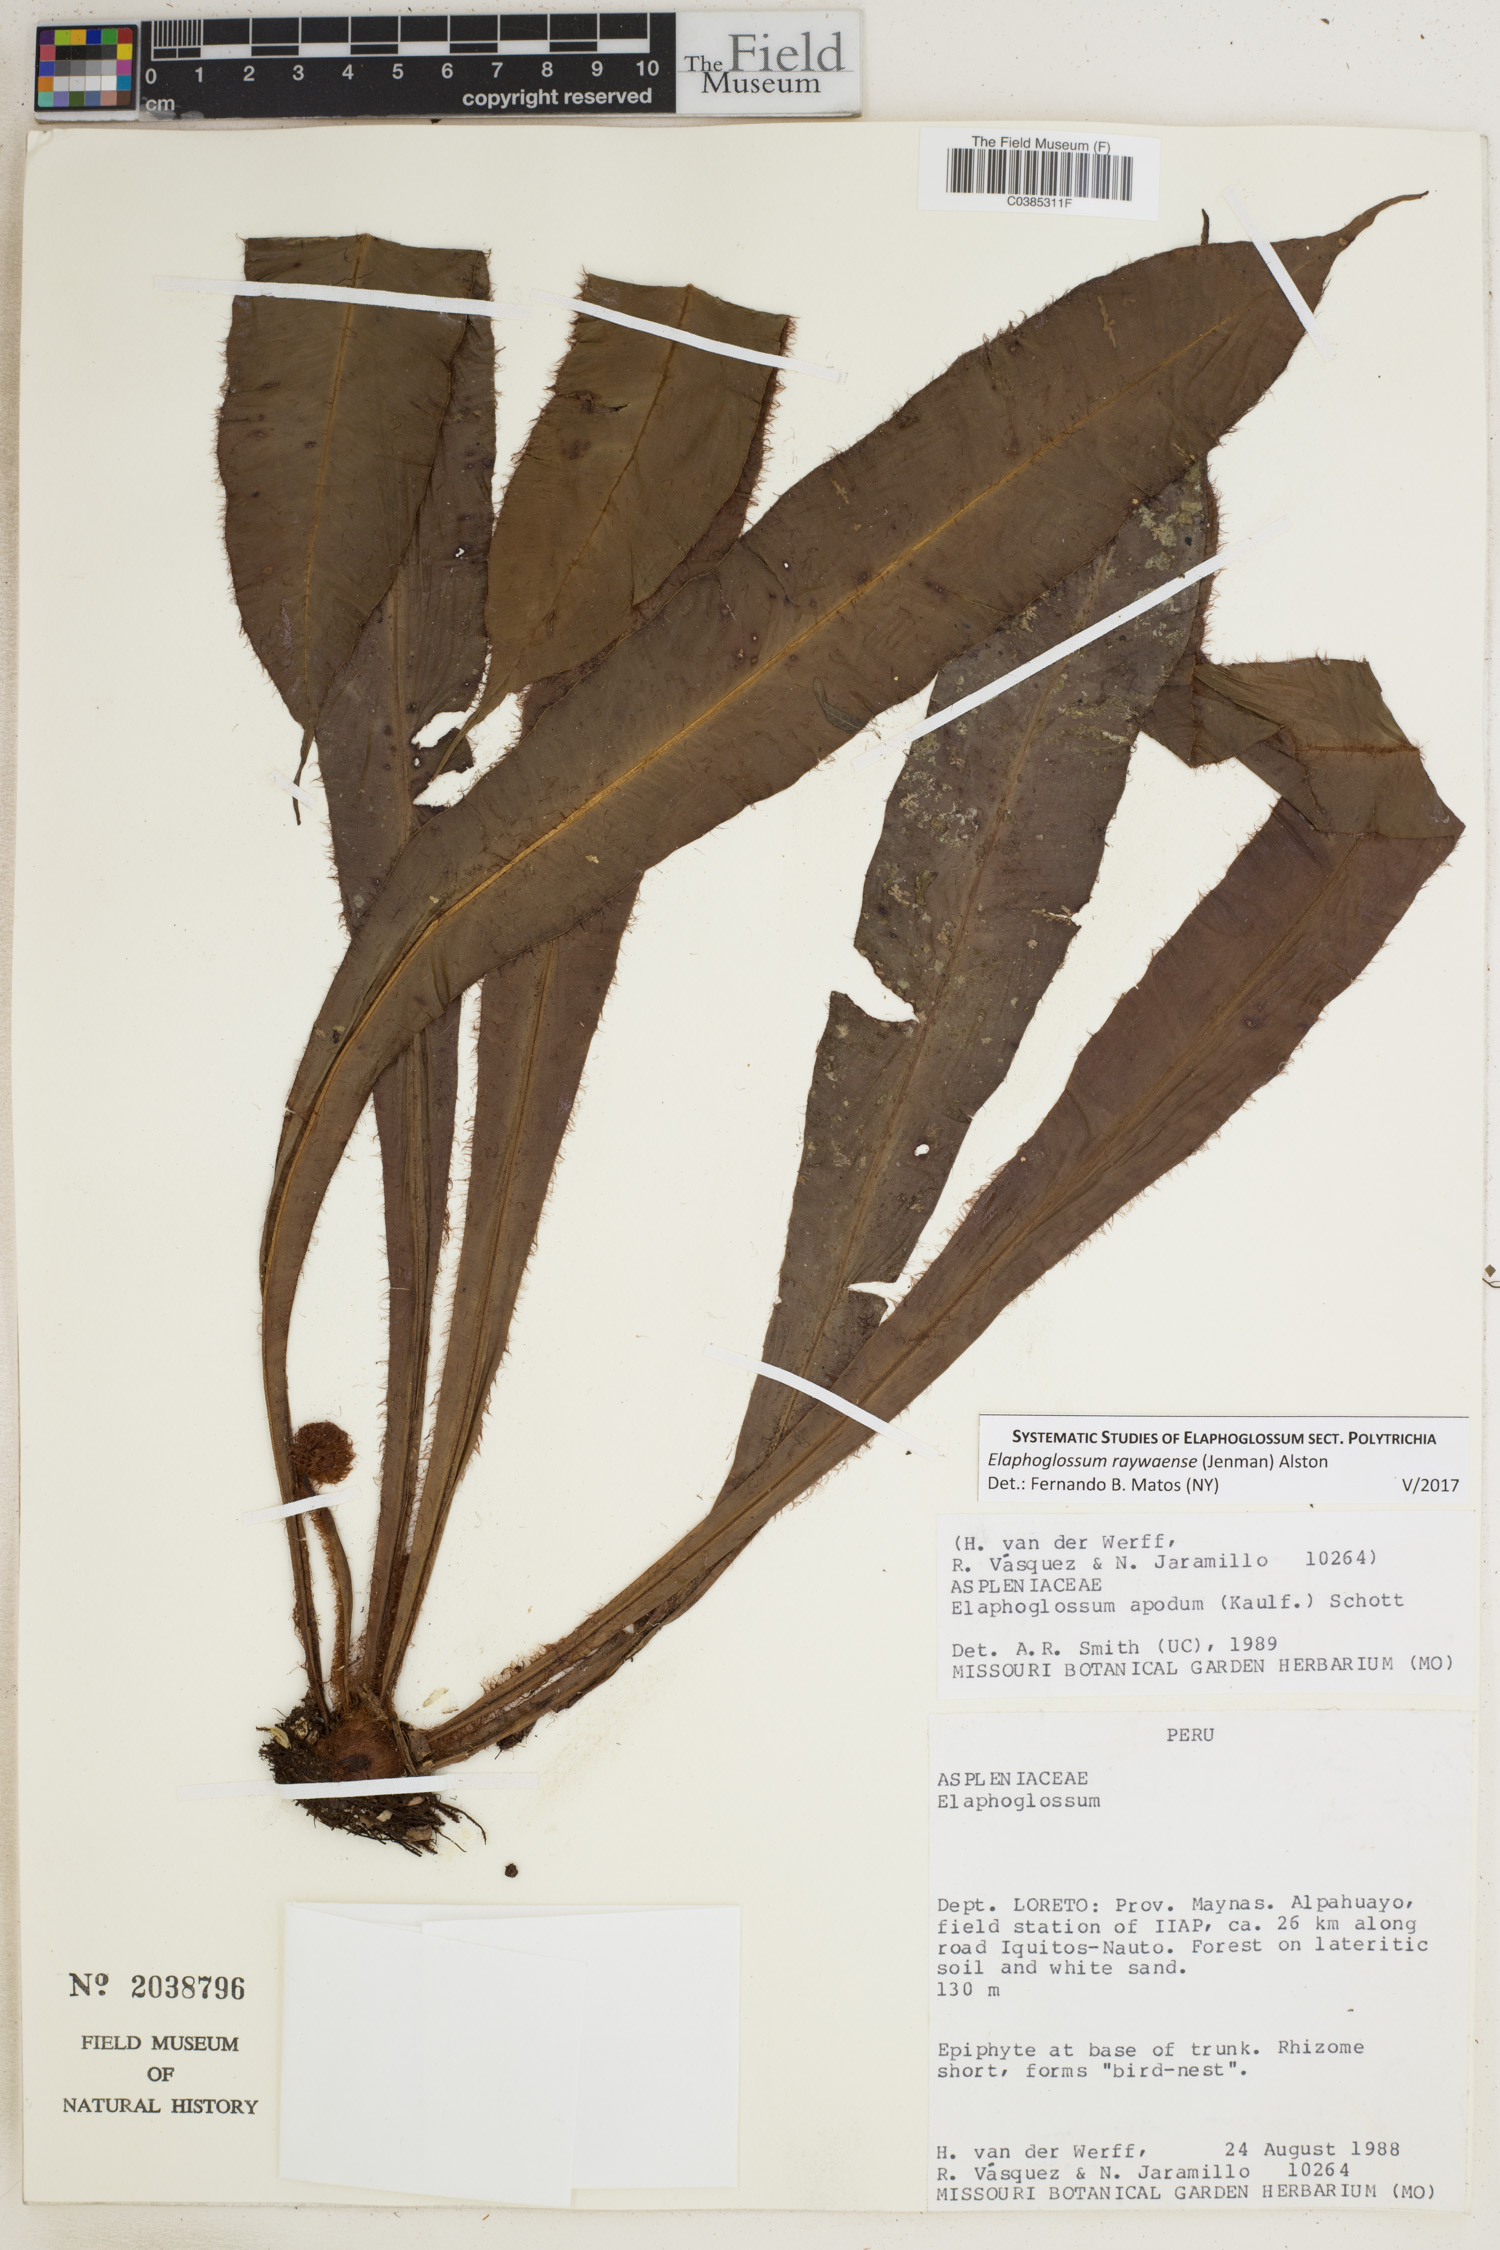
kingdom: Plantae
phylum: Tracheophyta
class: Polypodiopsida
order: Polypodiales
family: Dryopteridaceae
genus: Elaphoglossum
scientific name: Elaphoglossum raywaense
